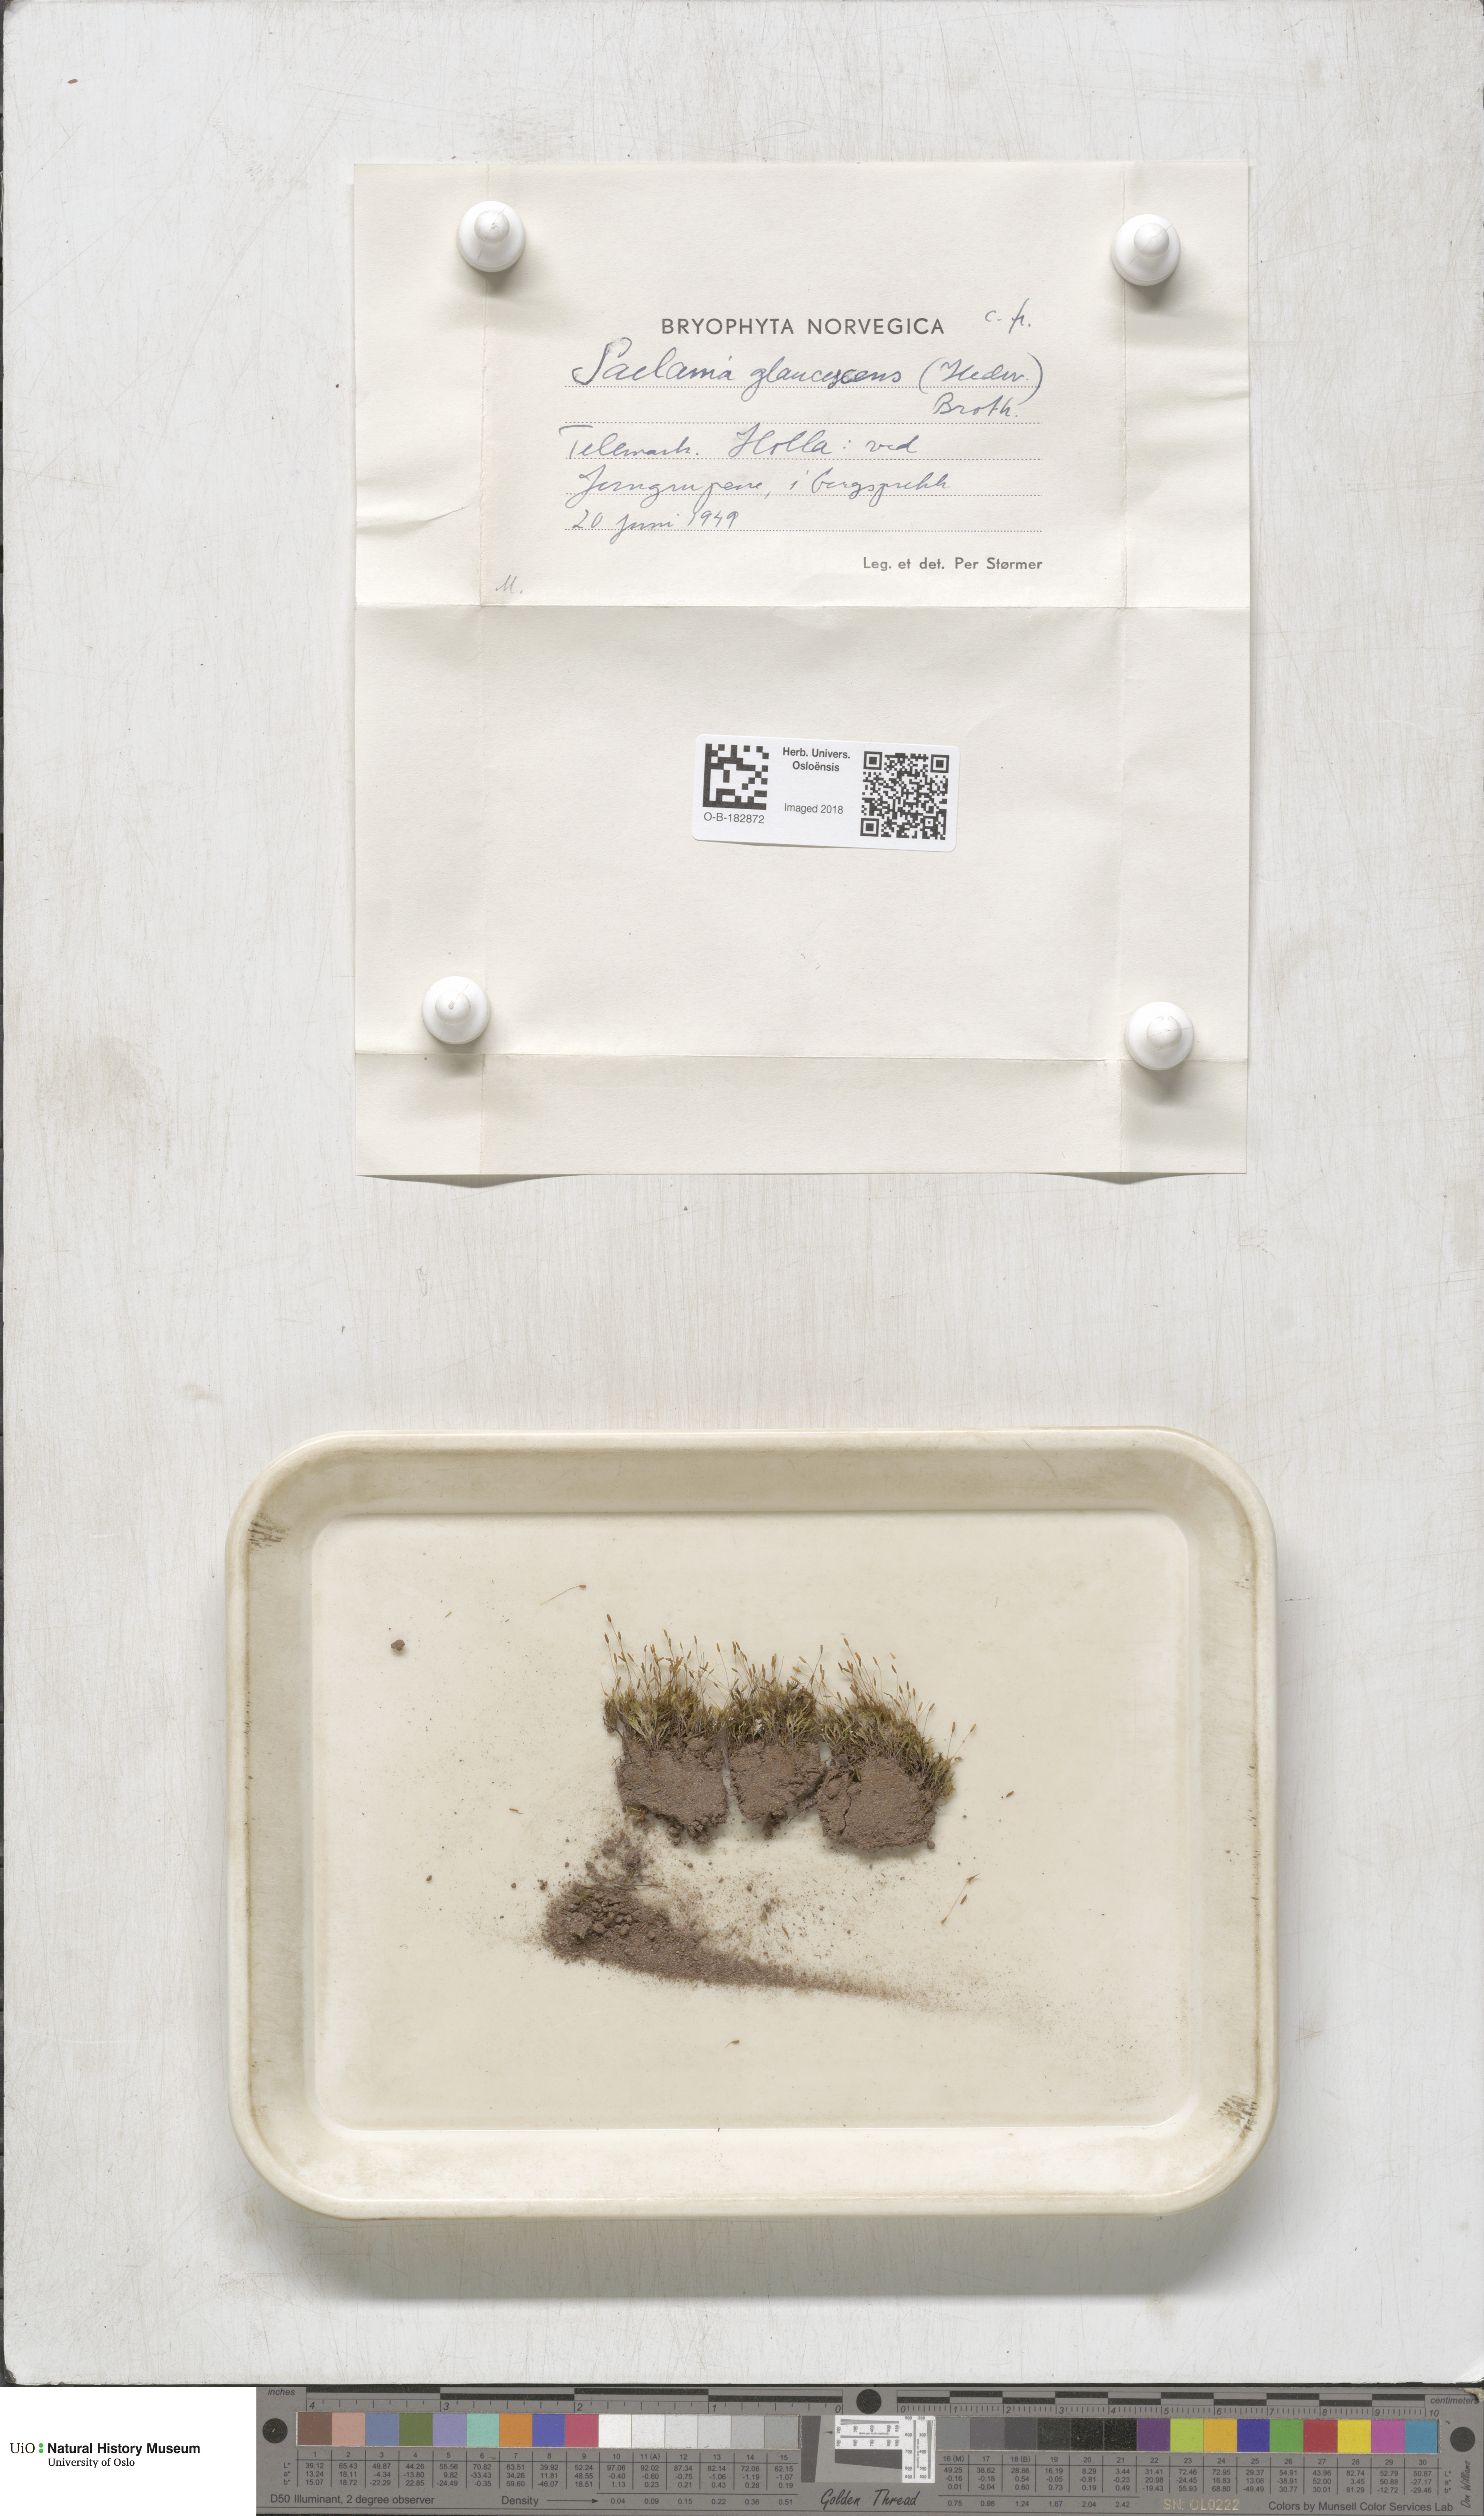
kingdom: Plantae
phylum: Bryophyta
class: Bryopsida
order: Grimmiales
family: Saelaniaceae
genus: Saelania
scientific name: Saelania glaucescens
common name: Blue dew-moss
